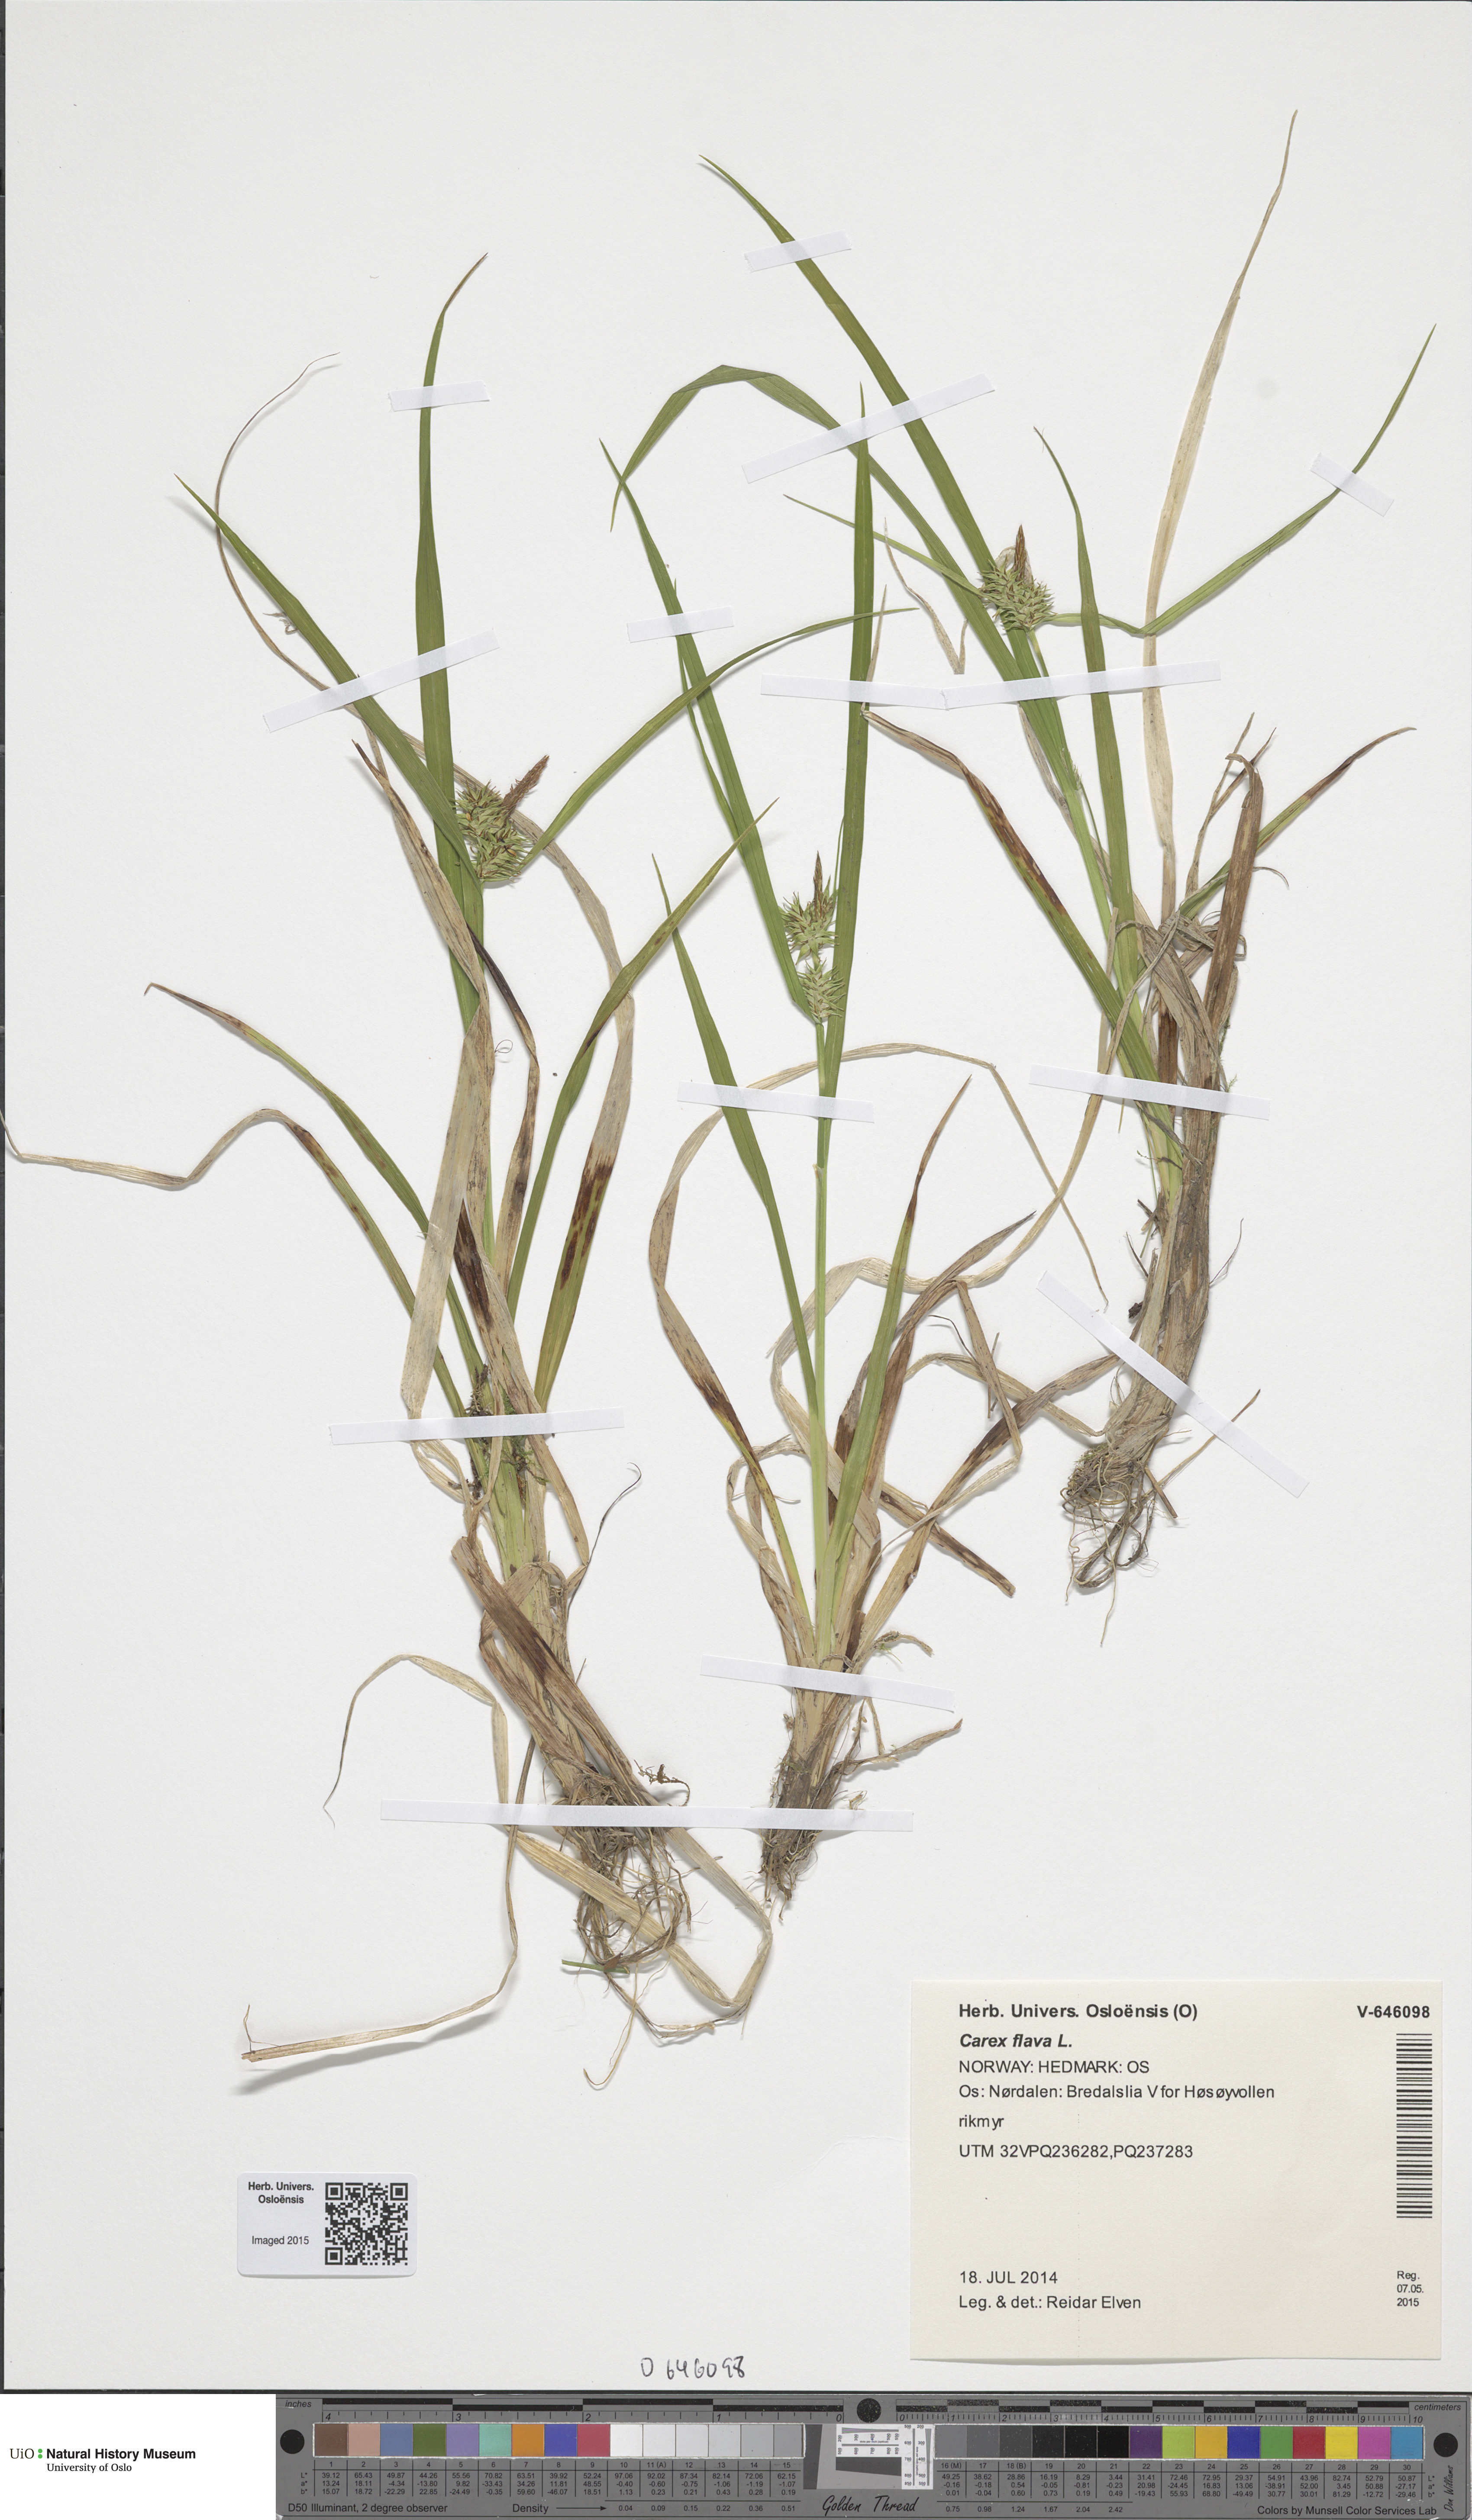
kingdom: Plantae
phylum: Tracheophyta
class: Liliopsida
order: Poales
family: Cyperaceae
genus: Carex
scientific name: Carex flava
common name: Large yellow-sedge
